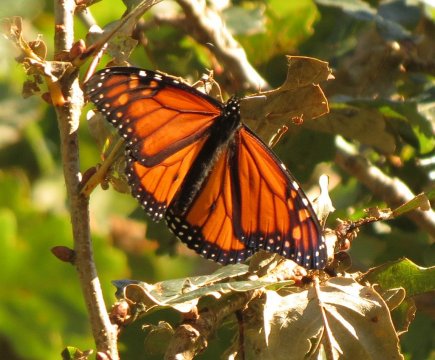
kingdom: Animalia
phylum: Arthropoda
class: Insecta
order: Lepidoptera
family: Nymphalidae
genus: Danaus
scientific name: Danaus plexippus
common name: Monarch
